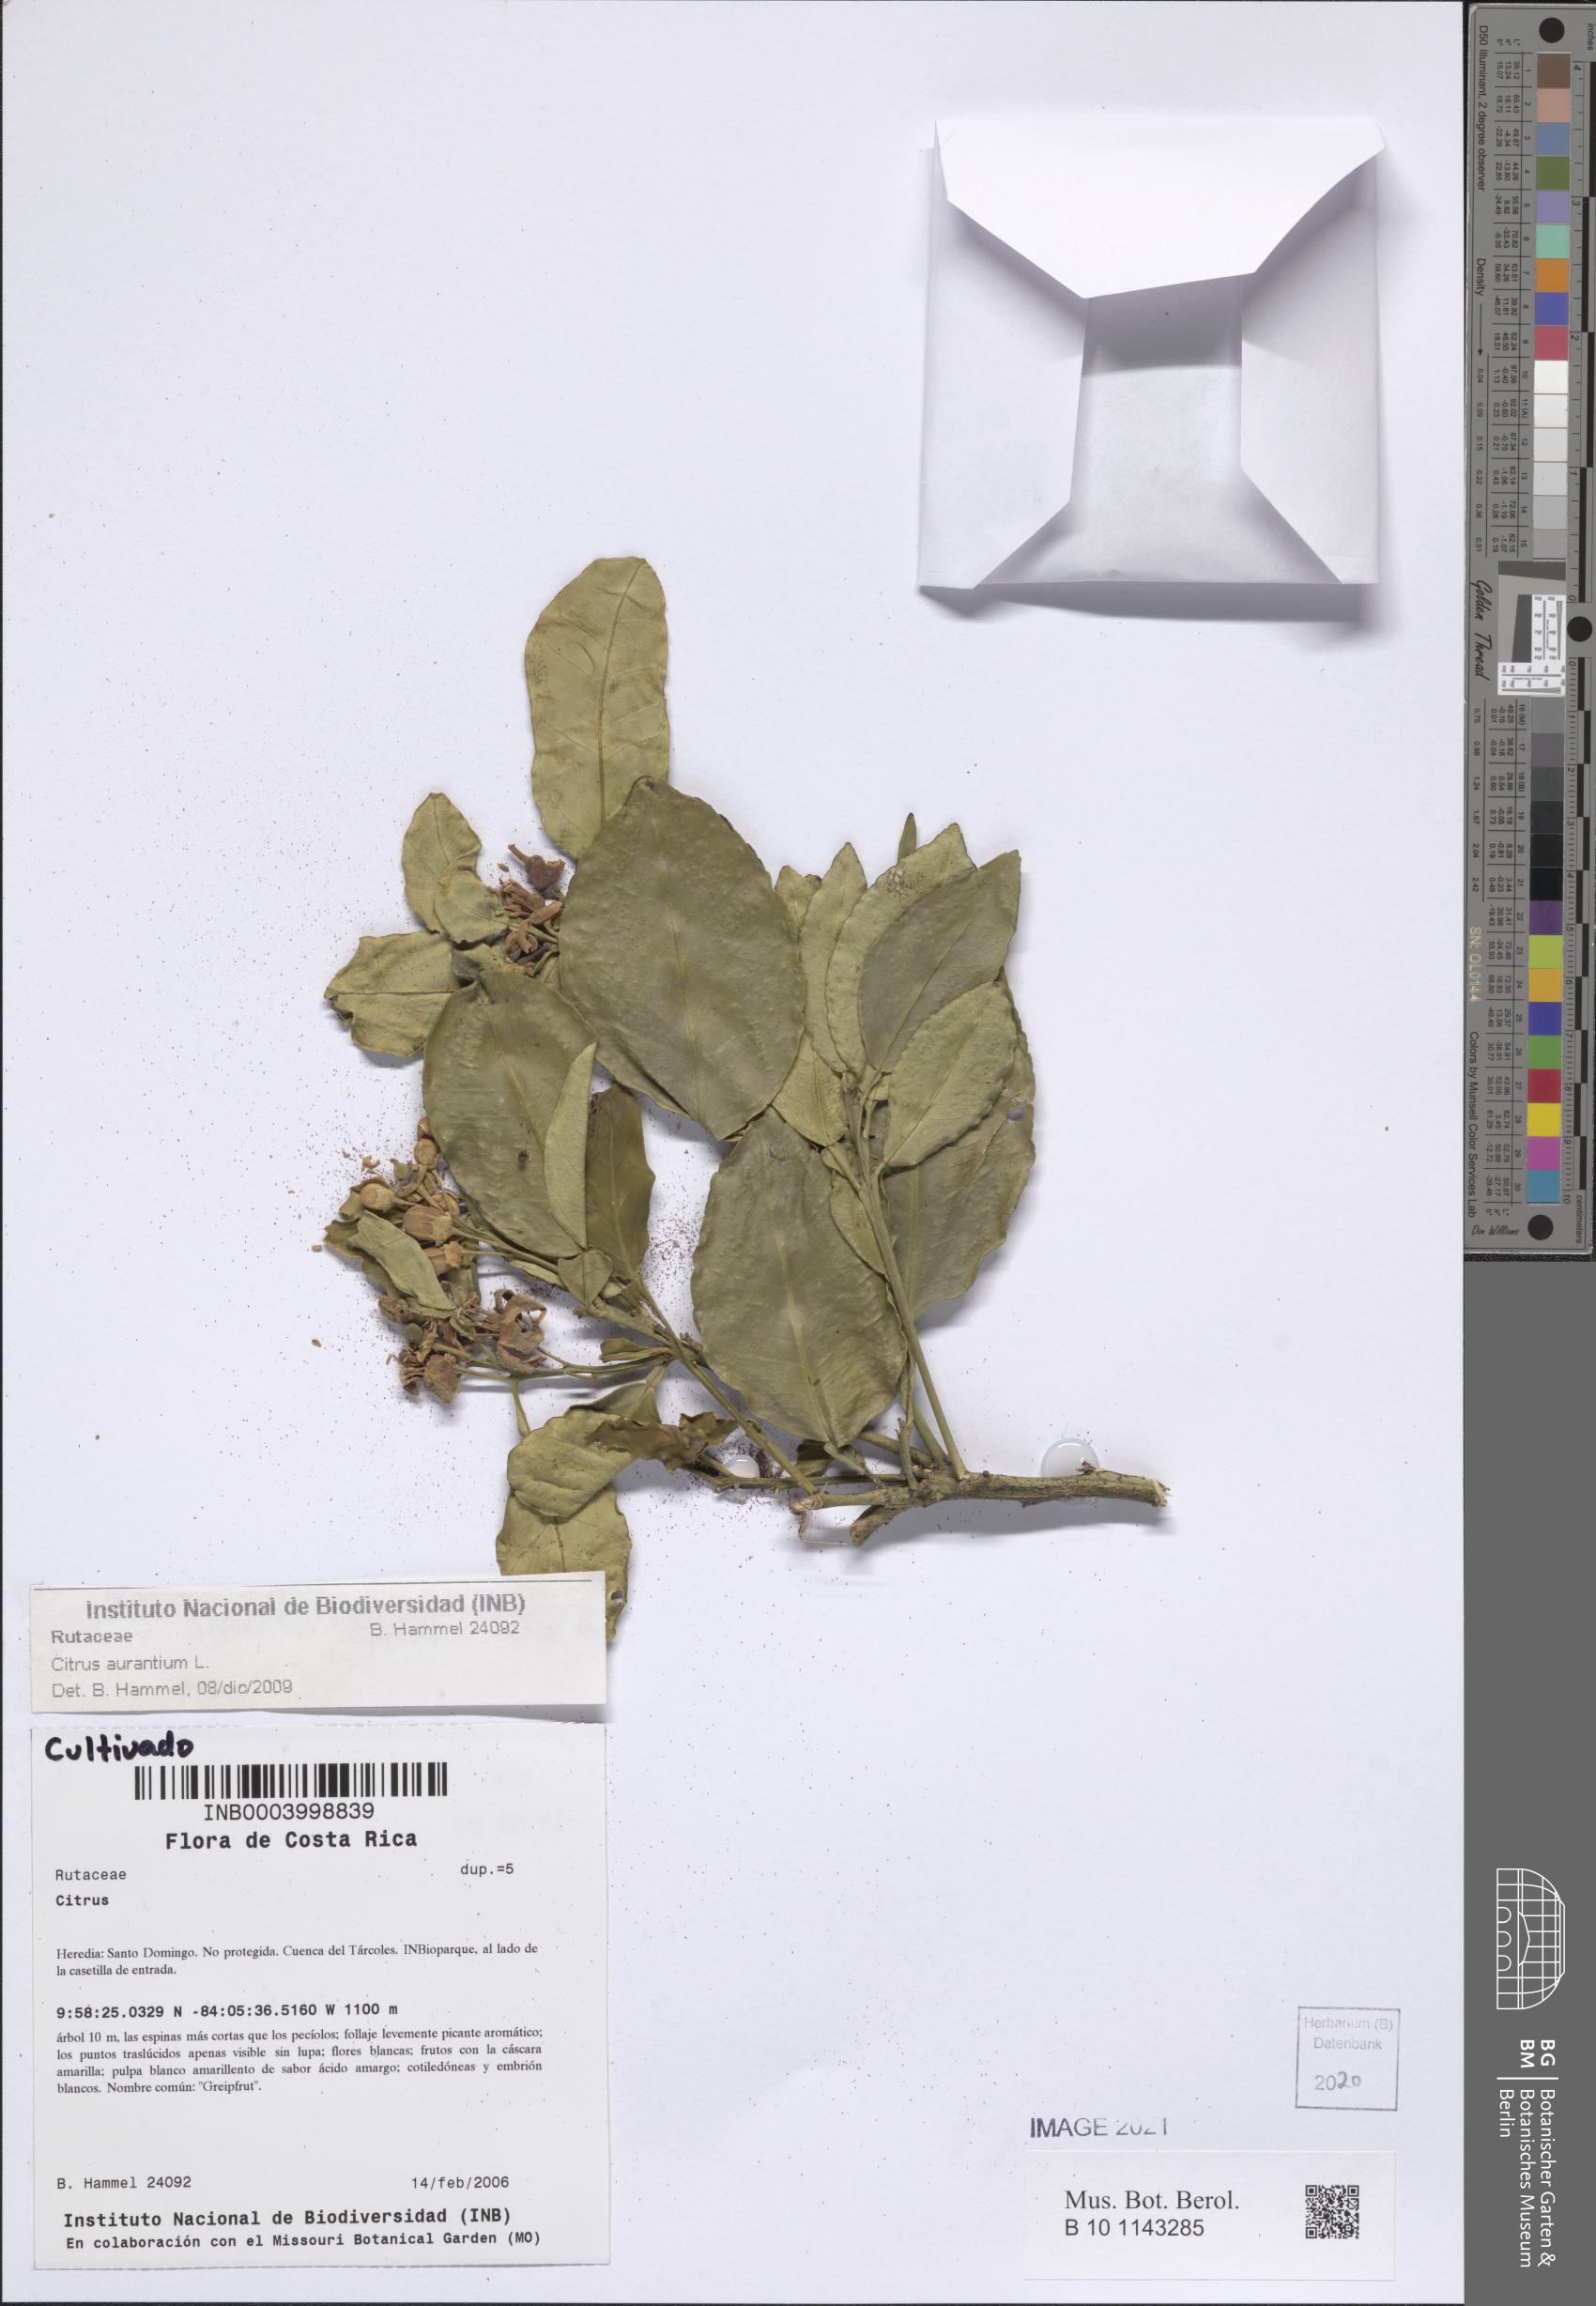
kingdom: Plantae
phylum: Tracheophyta
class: Magnoliopsida
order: Sapindales
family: Rutaceae
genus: Citrus
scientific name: Citrus aurantium
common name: Sour orange
